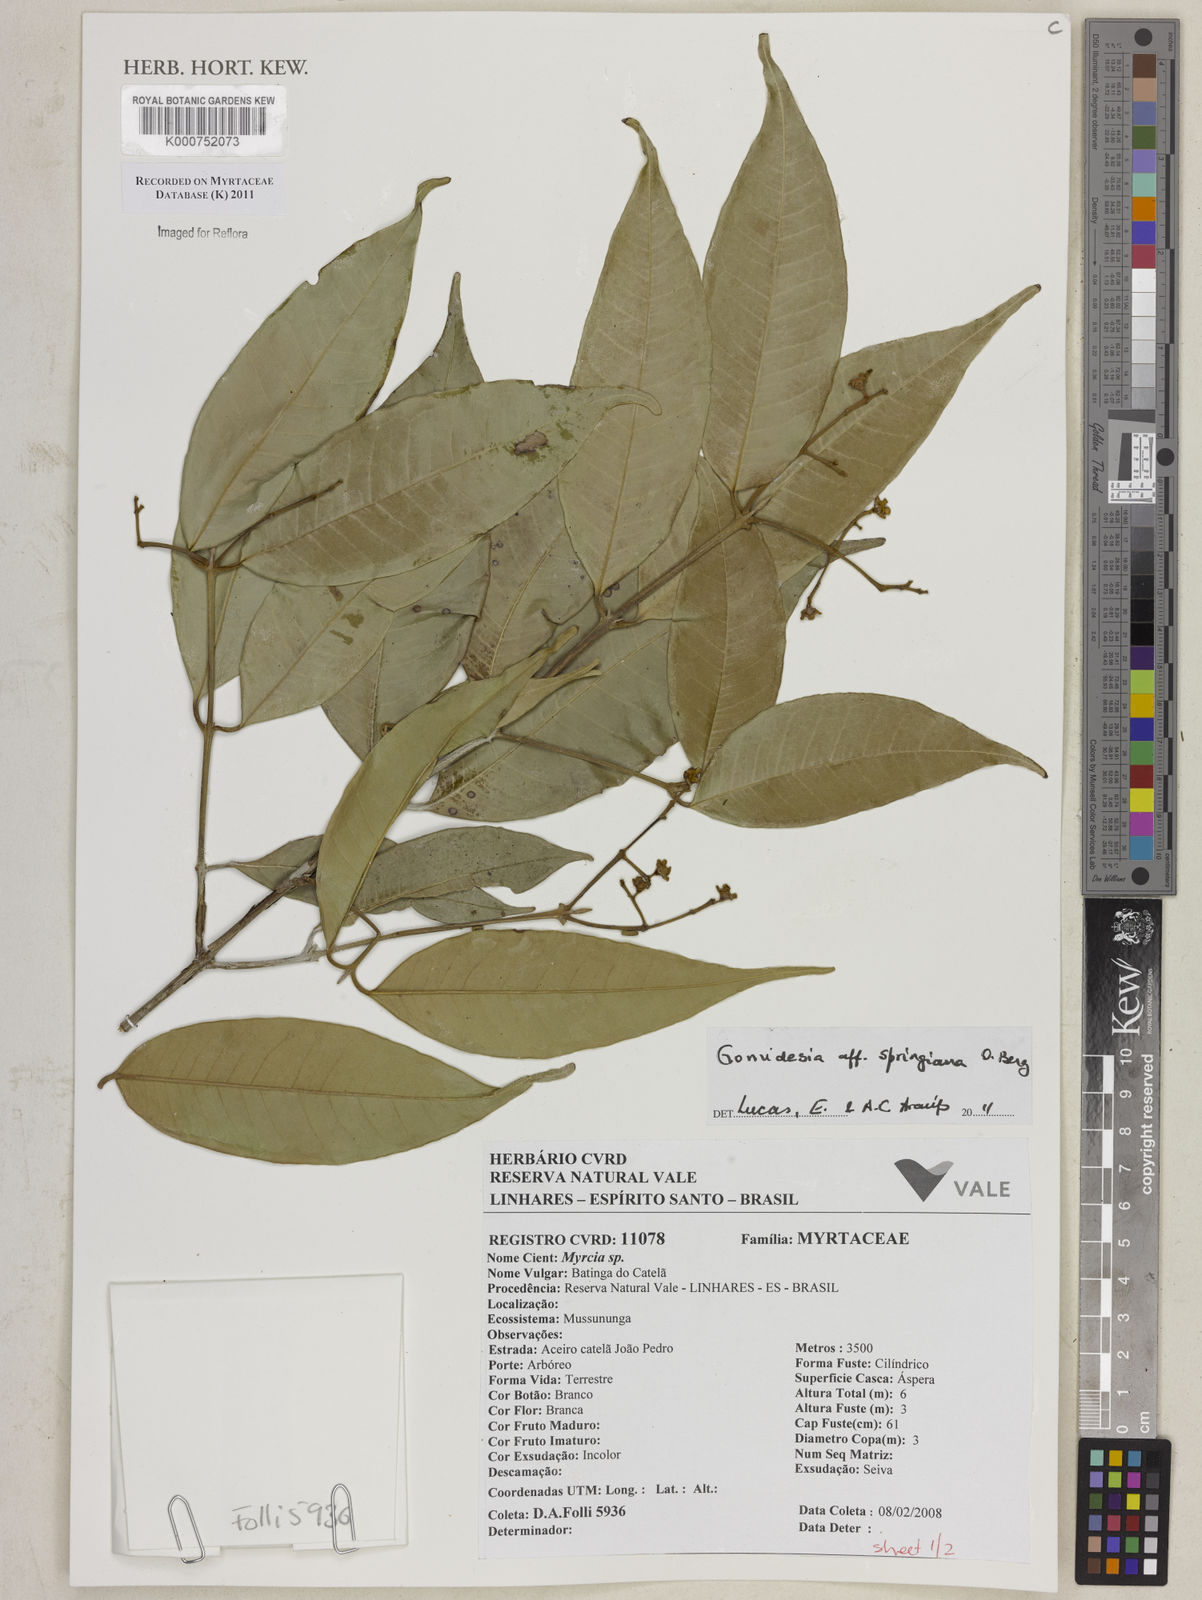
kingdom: Plantae
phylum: Tracheophyta
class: Magnoliopsida
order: Myrtales
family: Myrtaceae
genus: Myrcia
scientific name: Myrcia springiana
